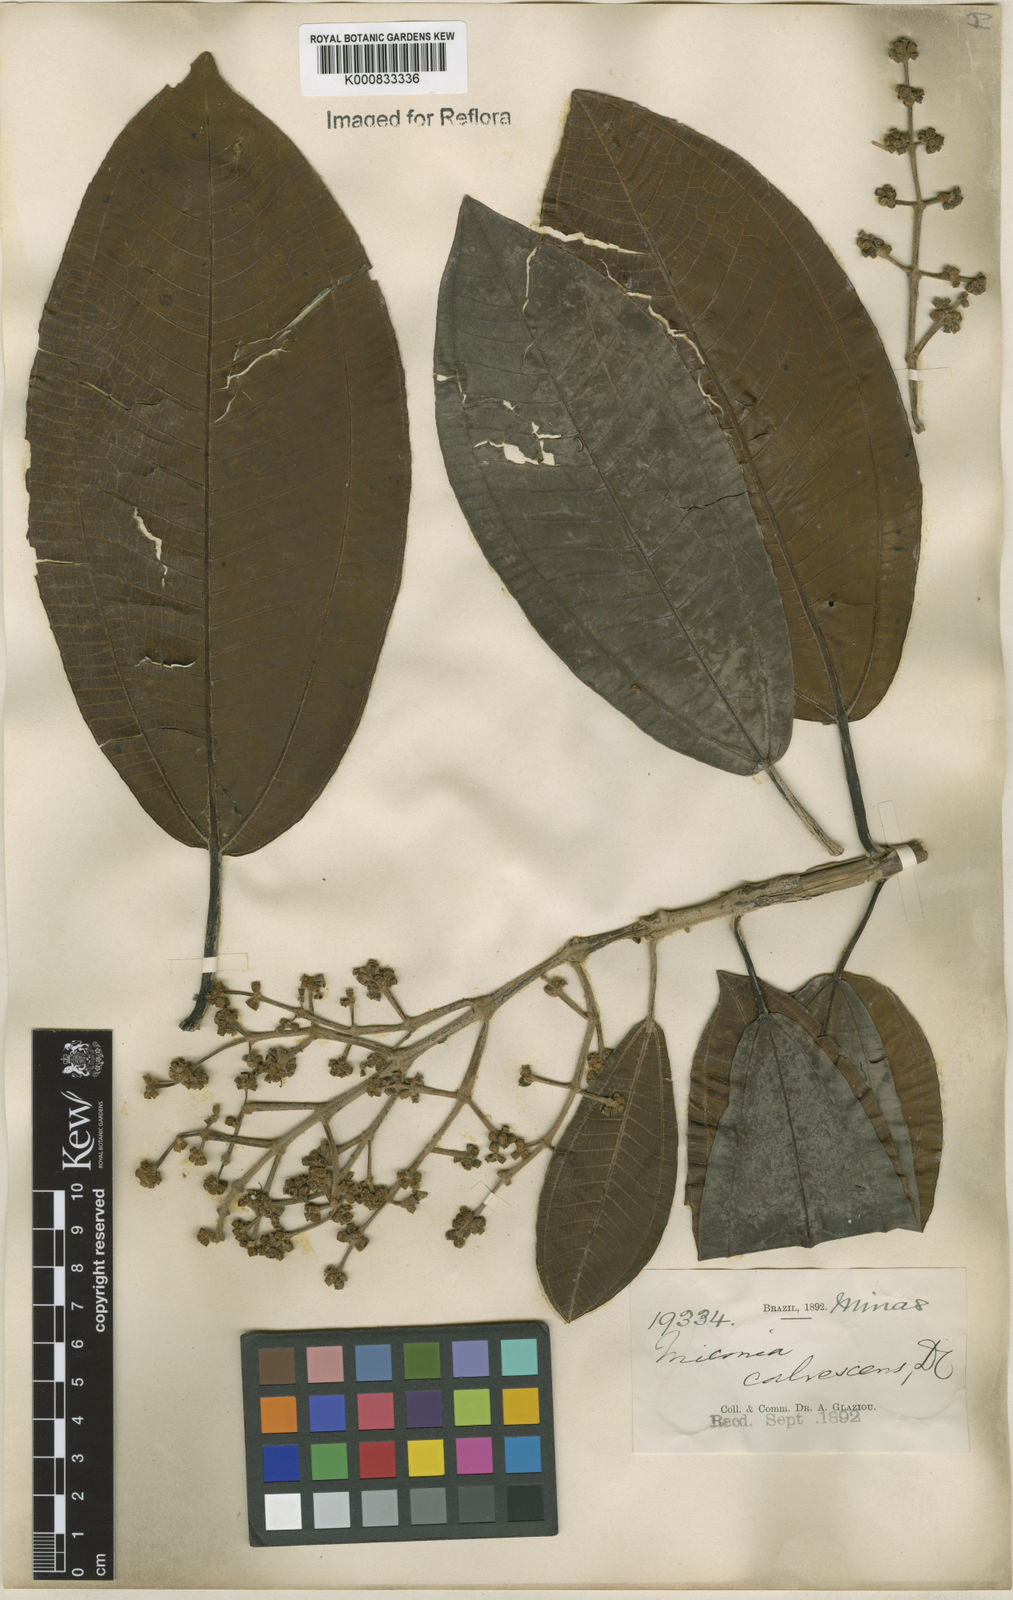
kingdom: Plantae
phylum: Tracheophyta
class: Magnoliopsida
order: Myrtales
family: Melastomataceae
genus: Miconia
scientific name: Miconia calvescens
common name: Purple plague
